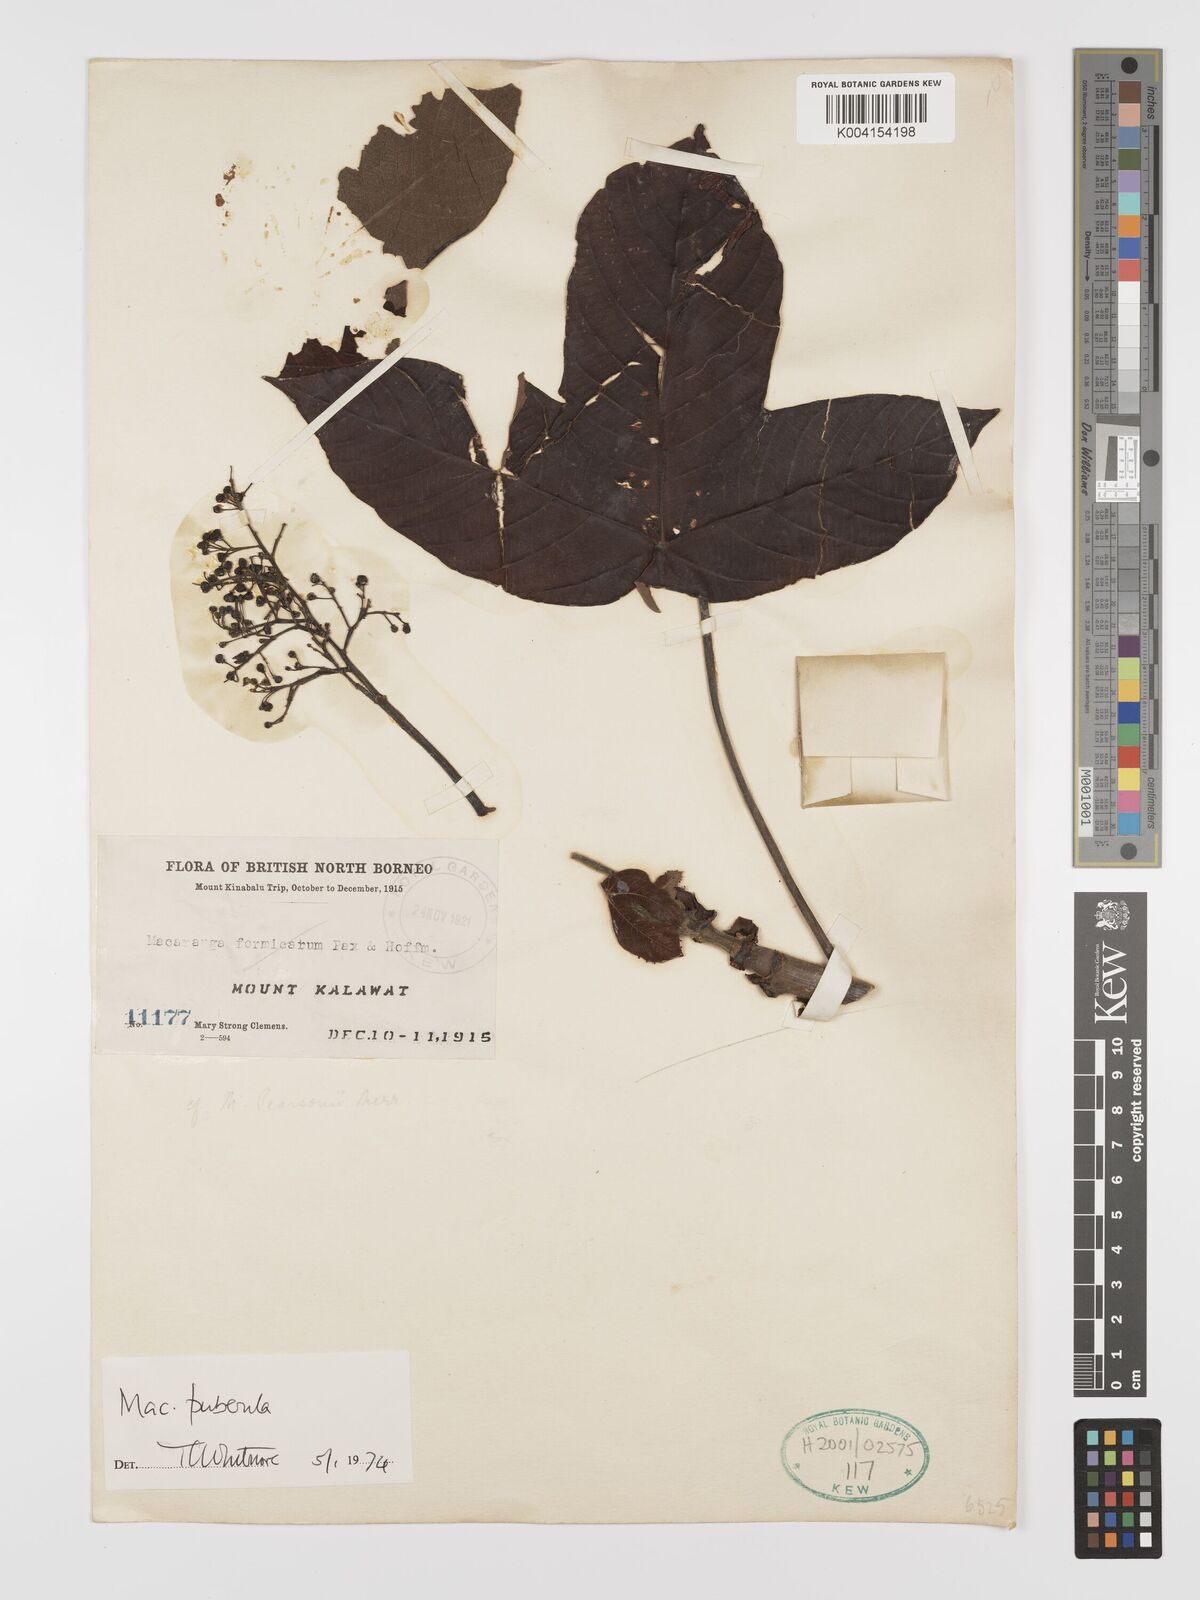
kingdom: Plantae
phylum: Tracheophyta
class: Magnoliopsida
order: Malpighiales
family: Euphorbiaceae
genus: Macaranga
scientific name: Macaranga puberula
